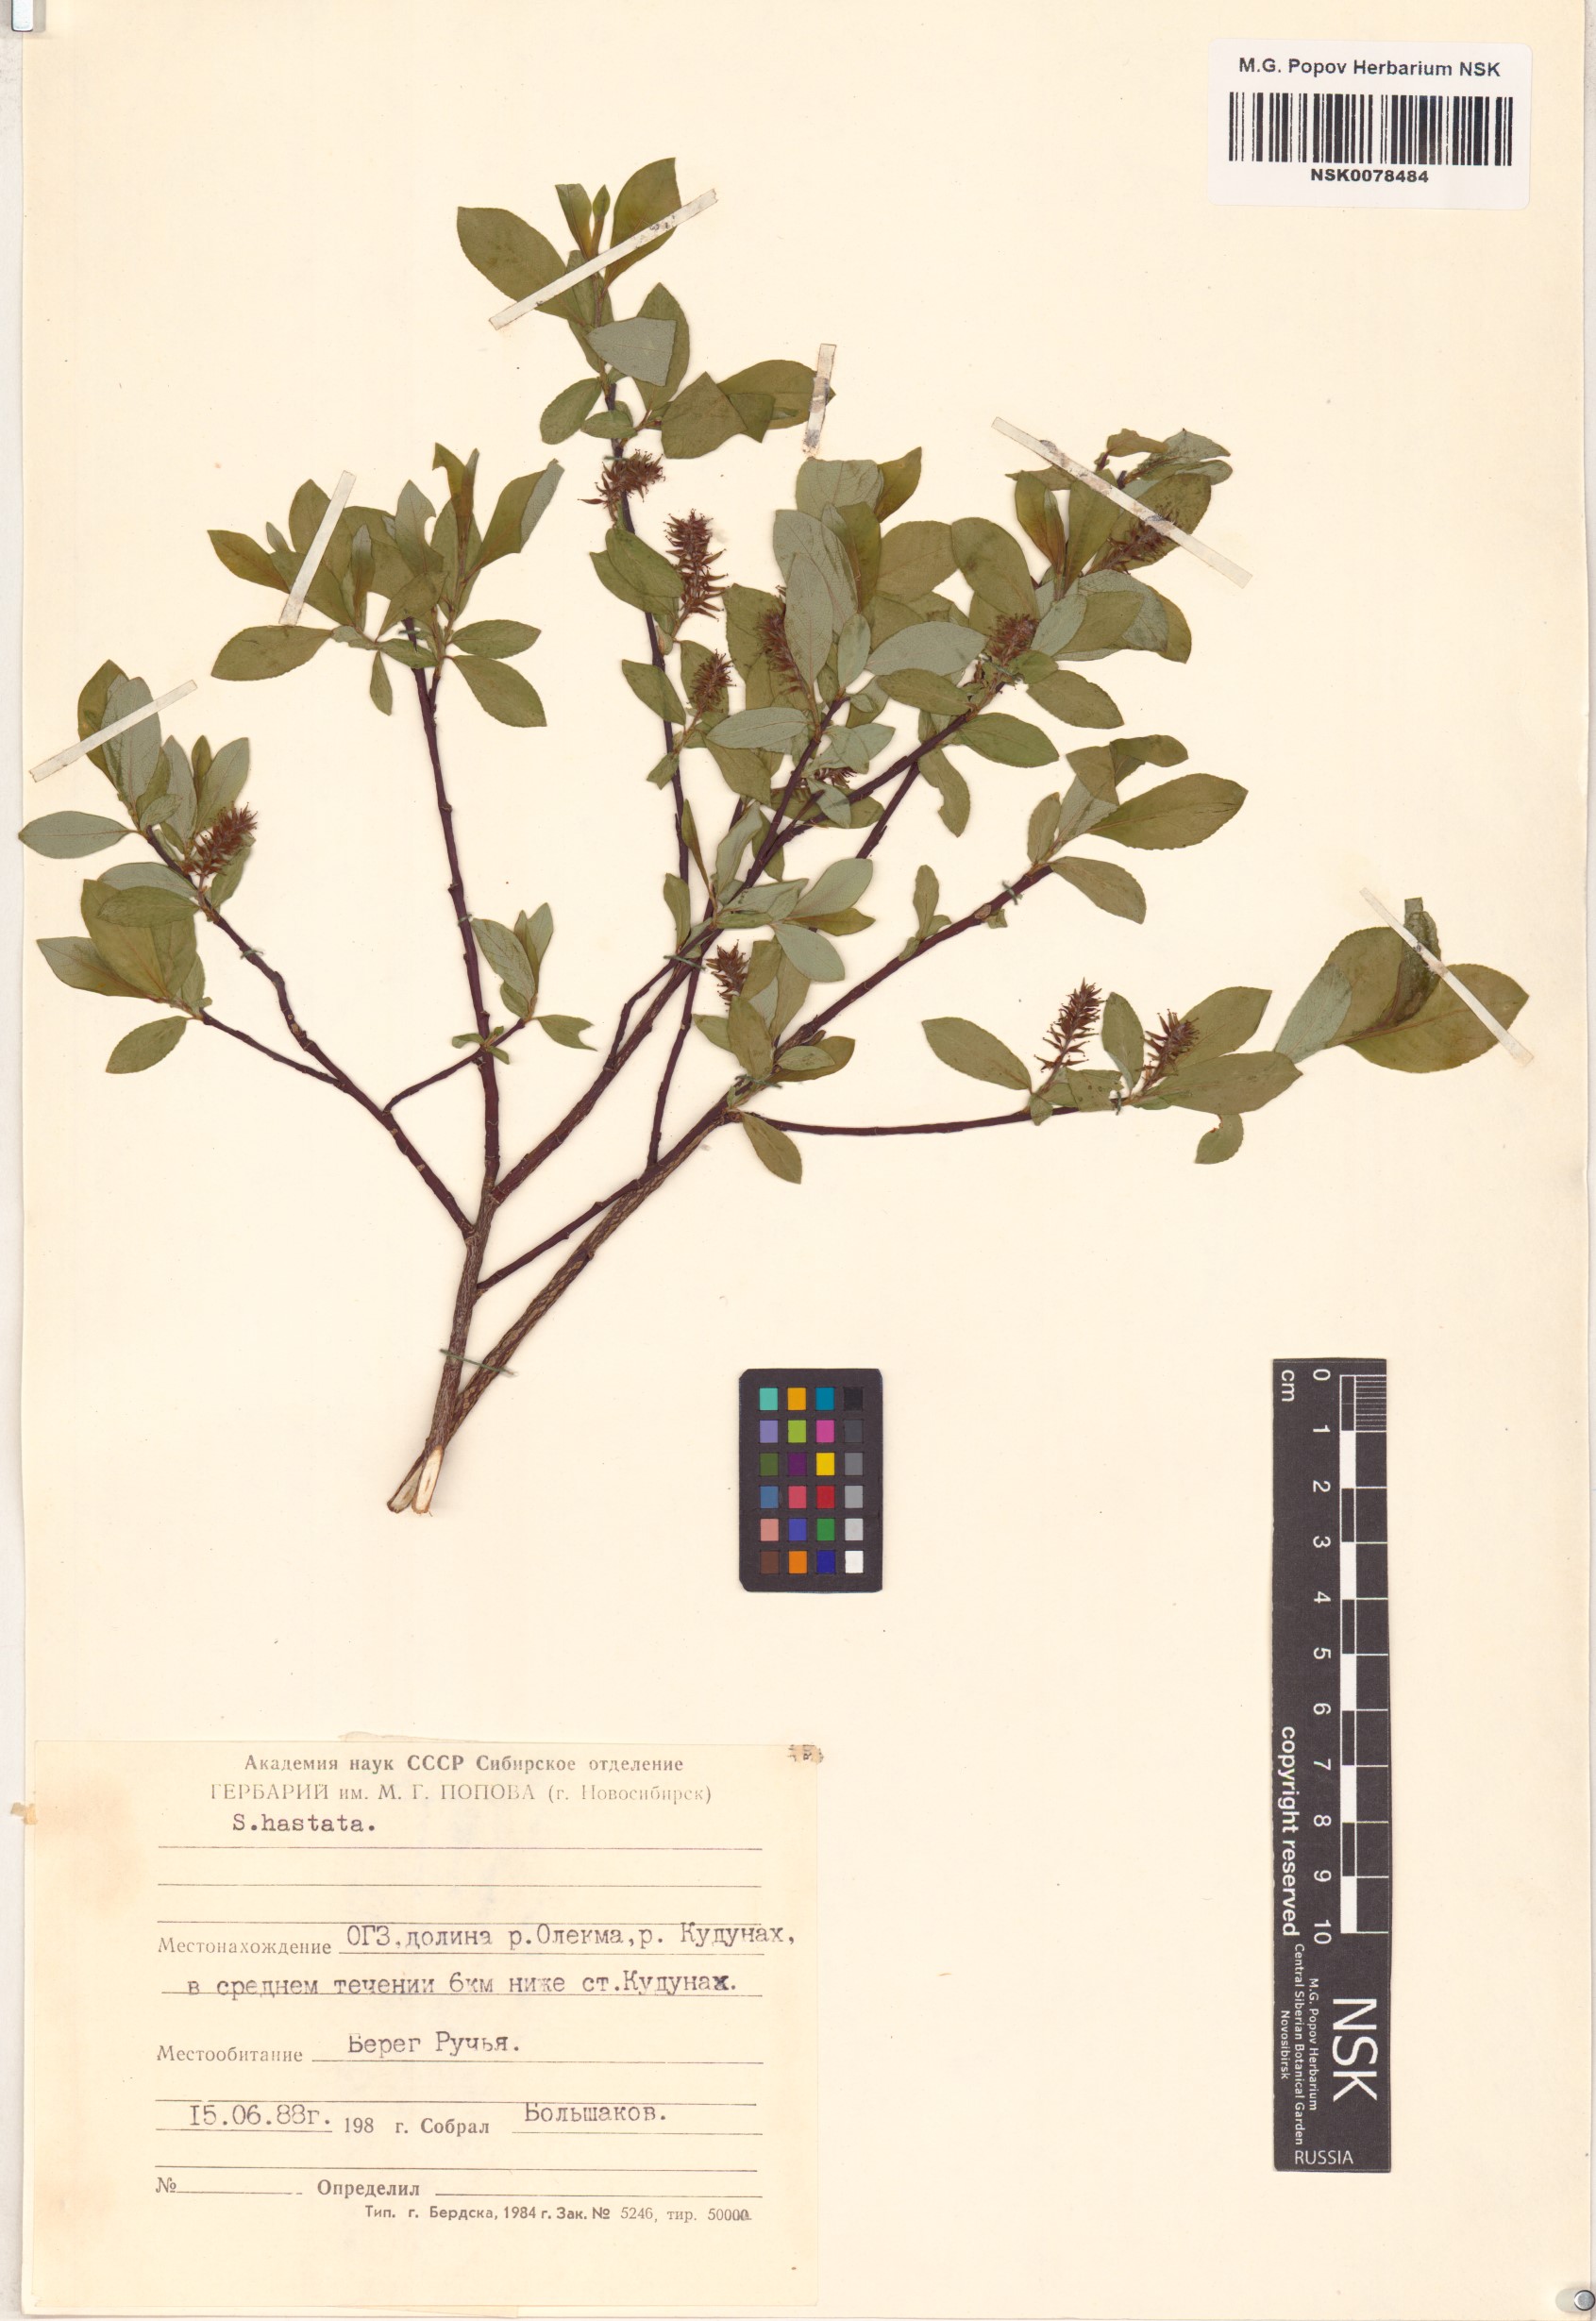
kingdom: Plantae
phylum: Tracheophyta
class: Magnoliopsida
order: Malpighiales
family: Salicaceae
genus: Salix
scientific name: Salix hastata
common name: Halberd willow
